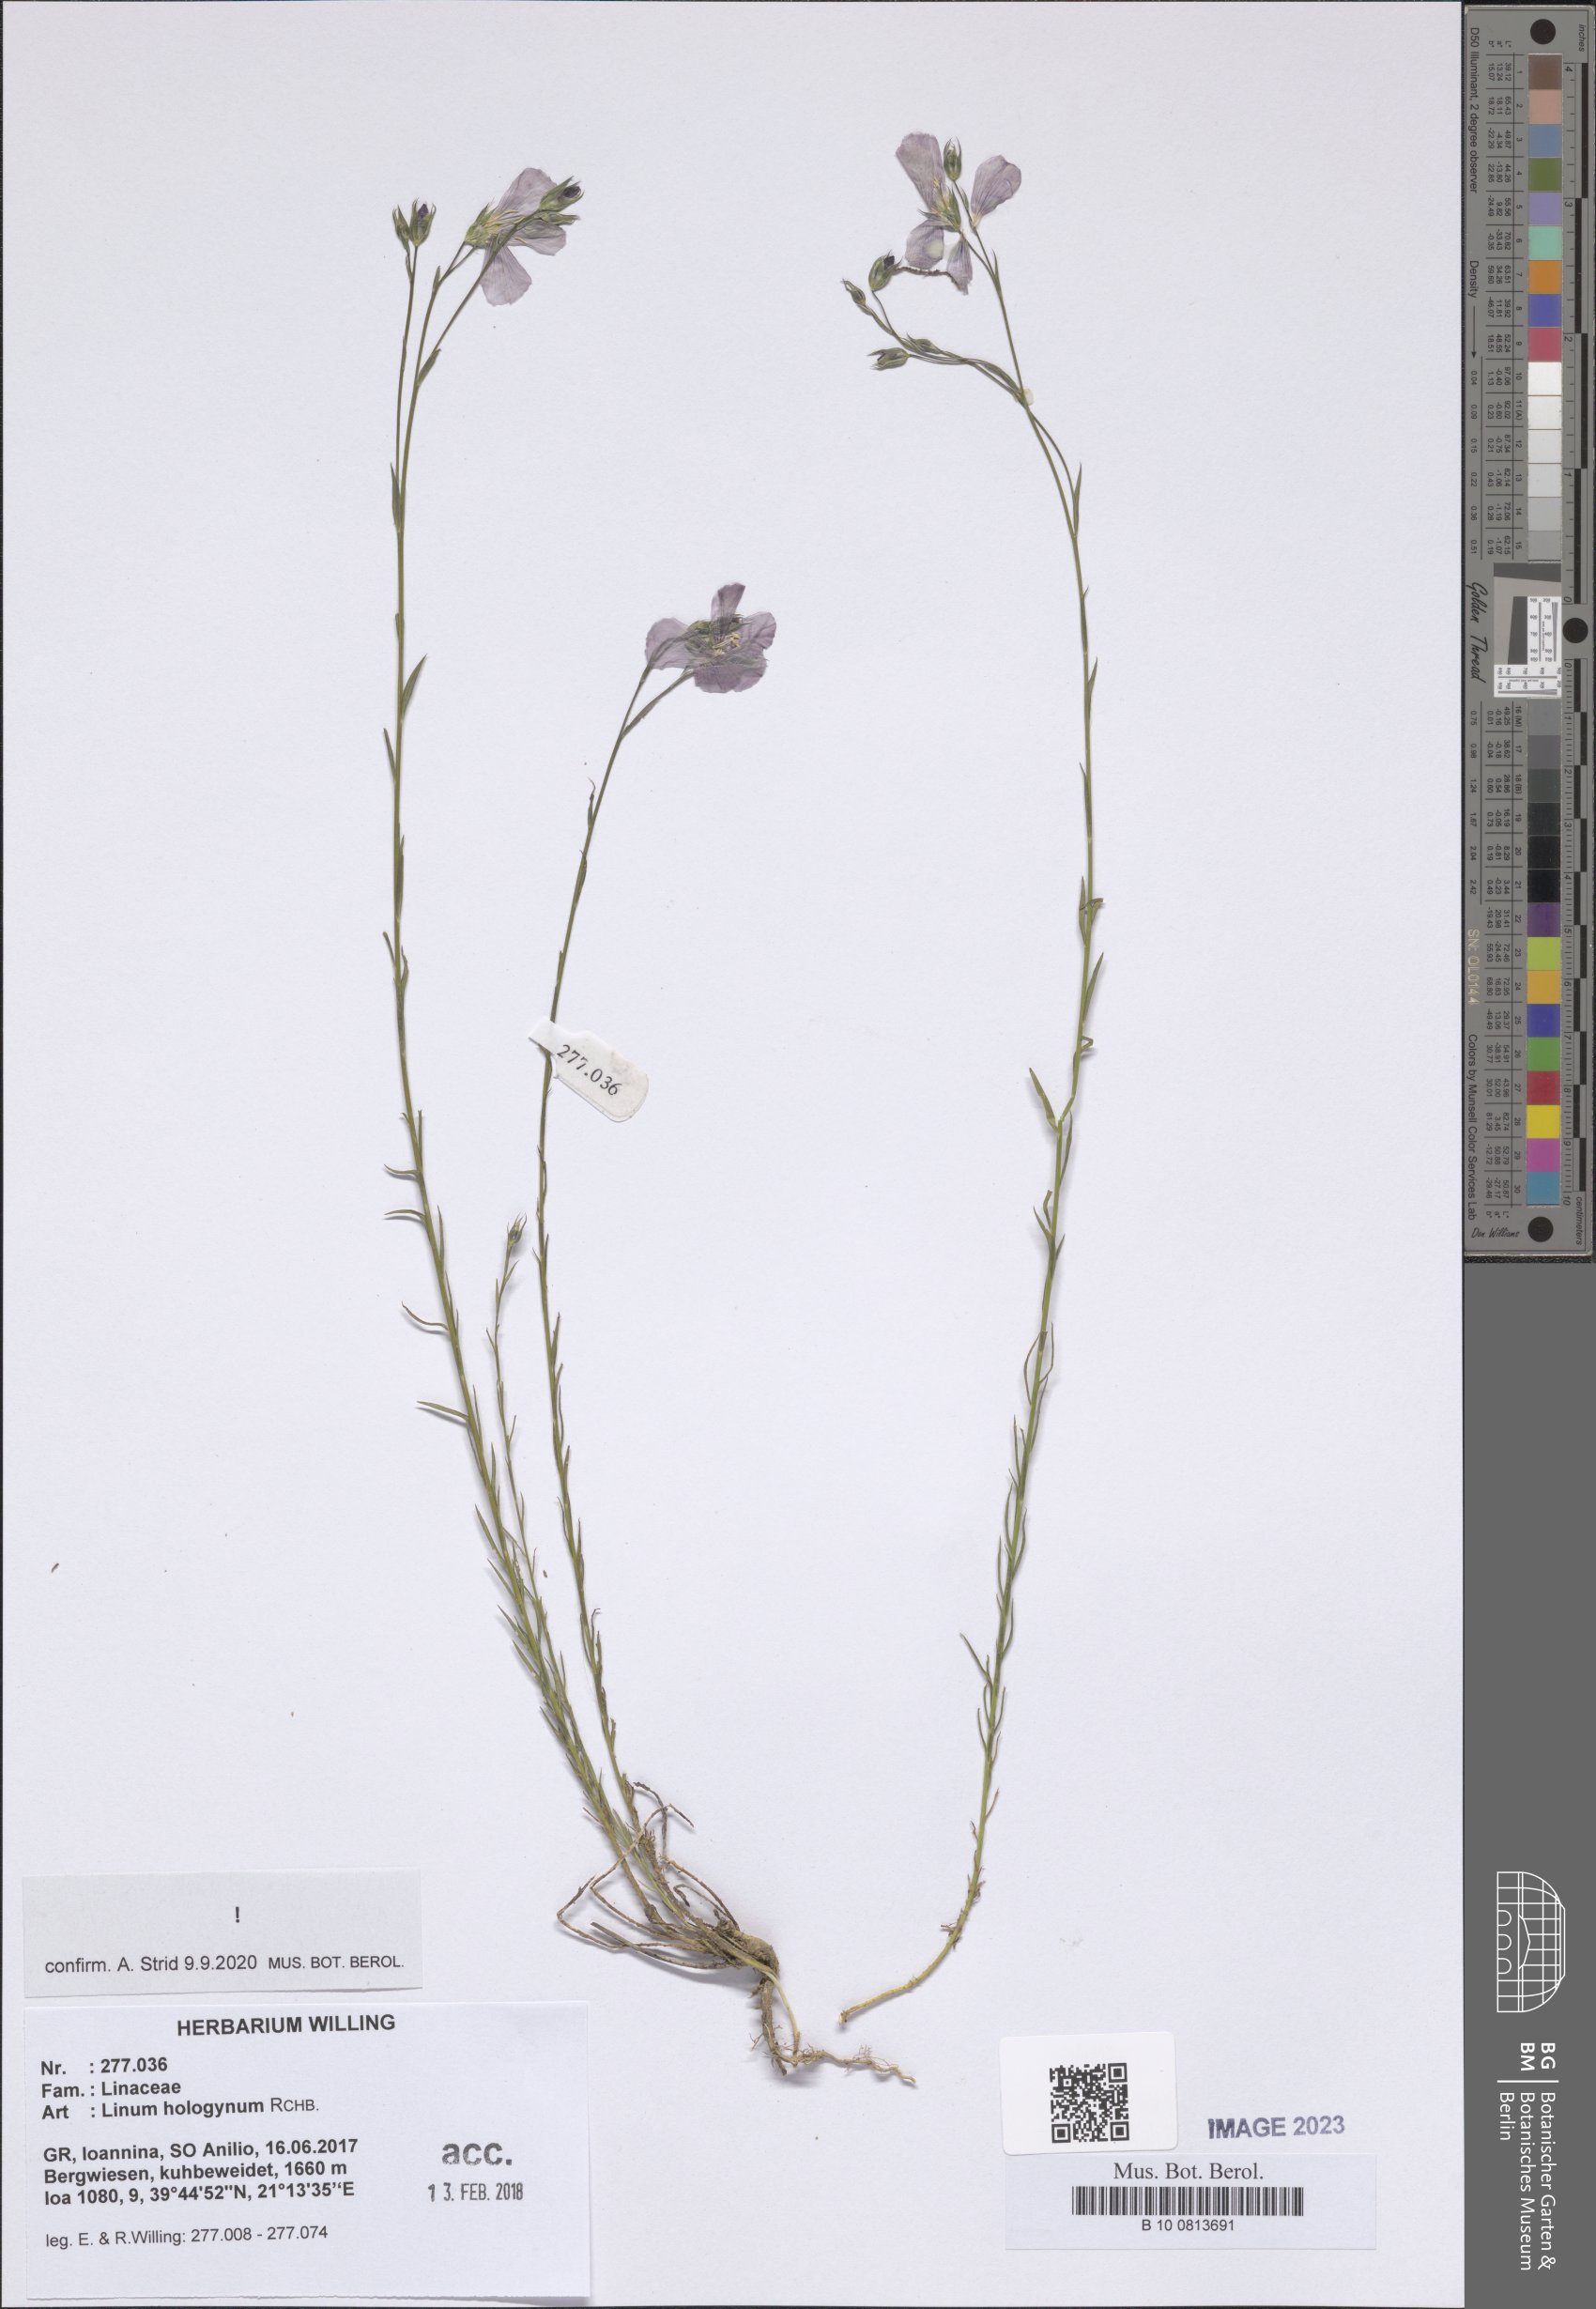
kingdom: Plantae
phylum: Tracheophyta
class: Magnoliopsida
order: Malpighiales
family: Linaceae
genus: Linum
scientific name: Linum hologynum
